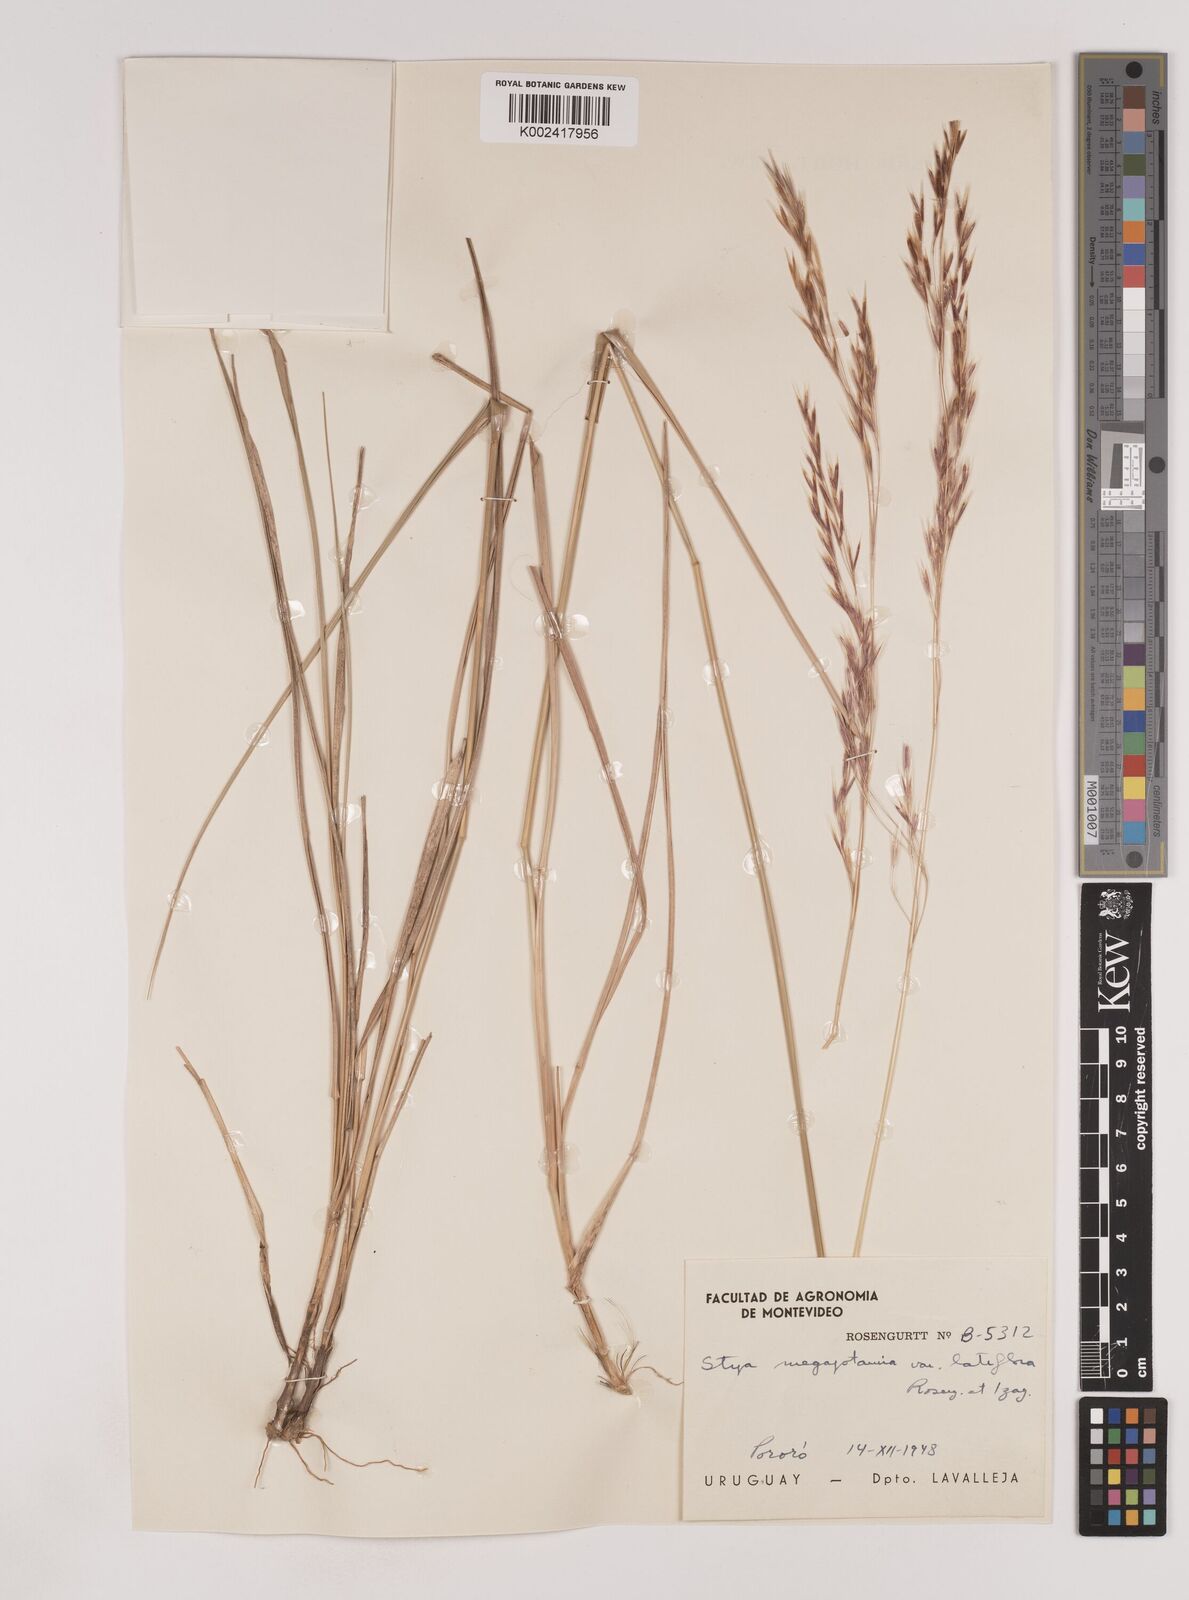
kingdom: Plantae
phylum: Tracheophyta
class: Liliopsida
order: Poales
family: Poaceae
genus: Nassella
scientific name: Nassella poeppigiana
